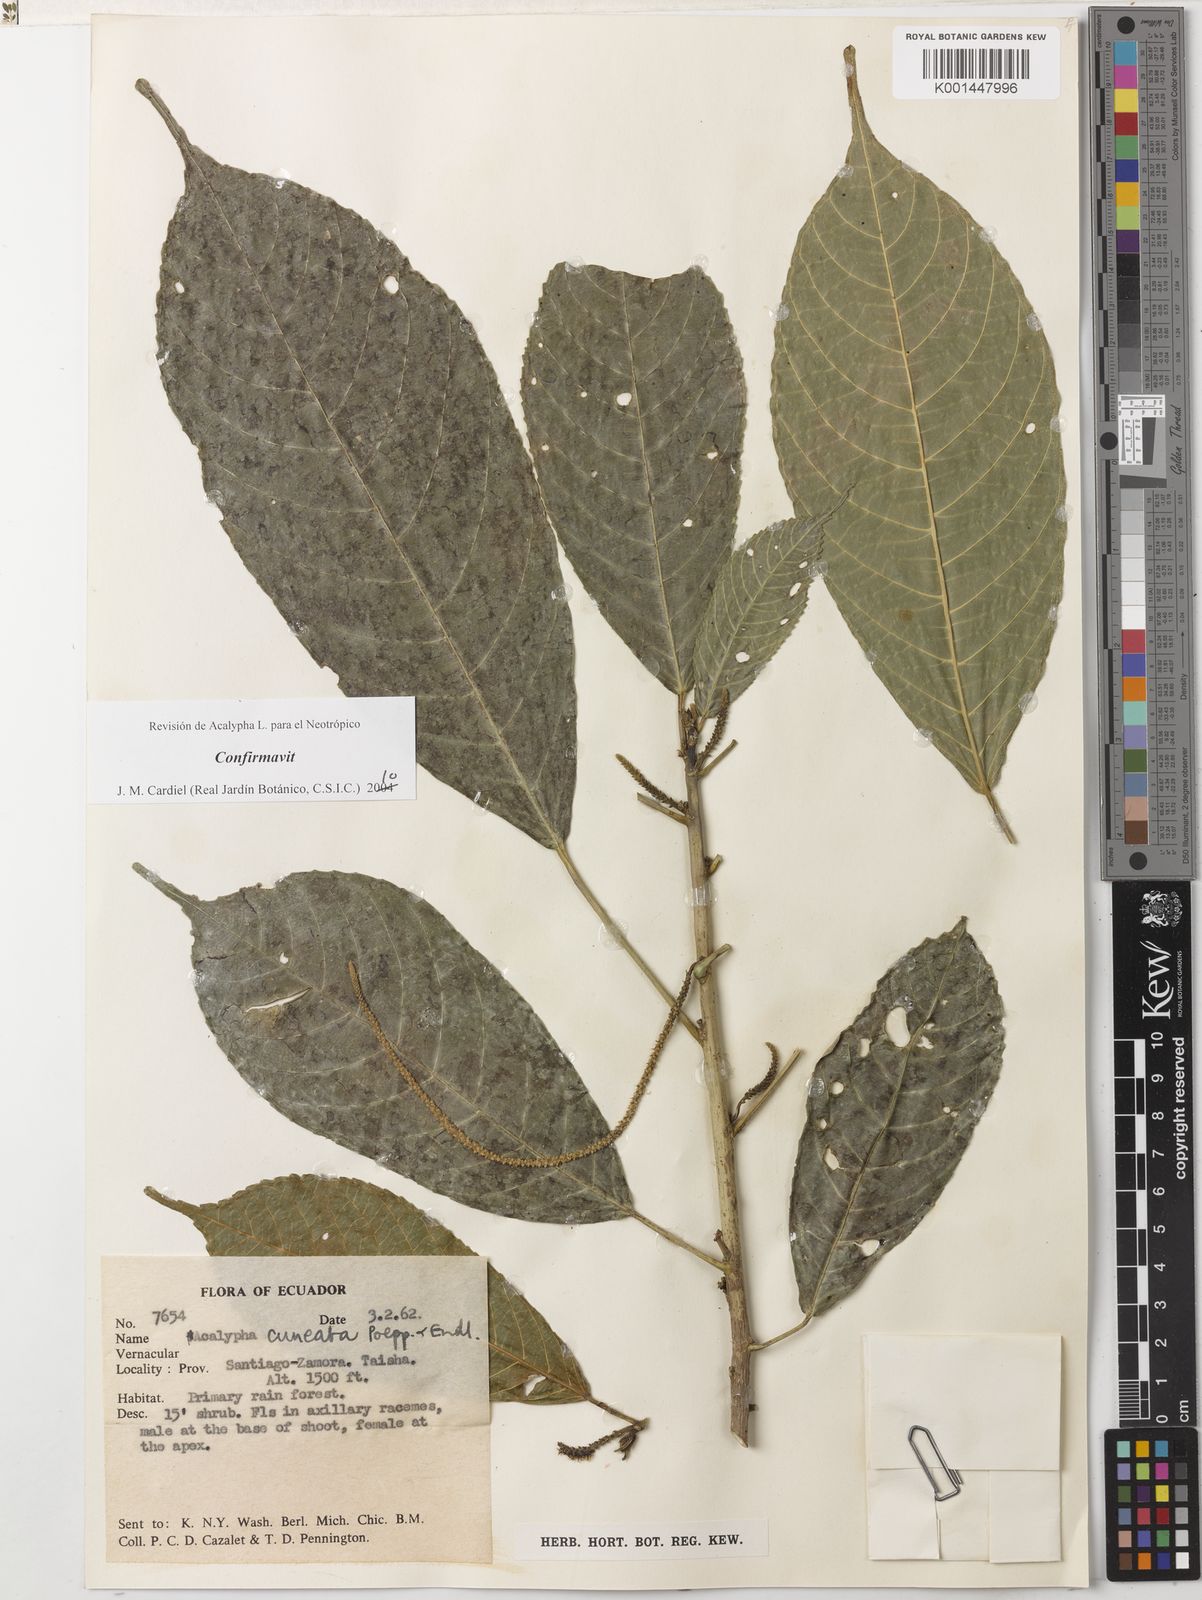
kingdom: Plantae
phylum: Tracheophyta
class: Magnoliopsida
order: Malpighiales
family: Euphorbiaceae
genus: Acalypha
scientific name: Acalypha cuneata
